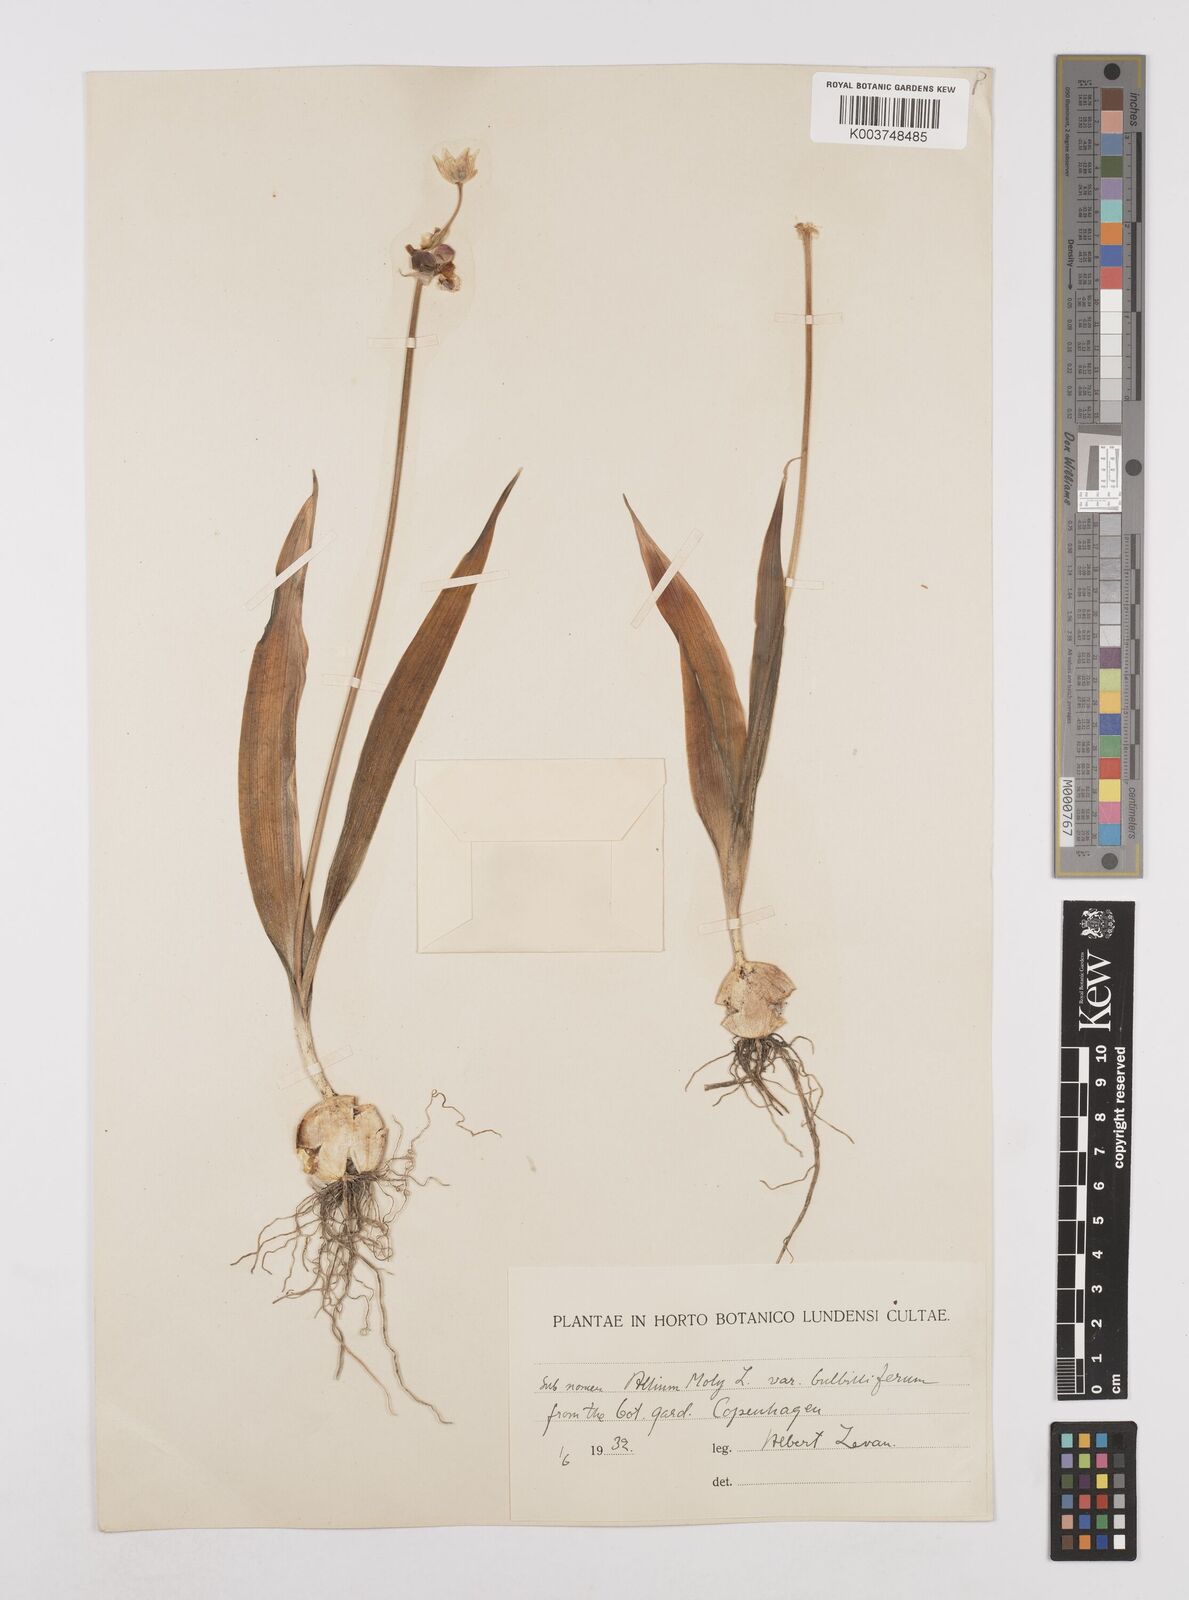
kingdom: Plantae
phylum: Tracheophyta
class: Liliopsida
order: Asparagales
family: Amaryllidaceae
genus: Allium
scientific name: Allium moly
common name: Yellow garlic
